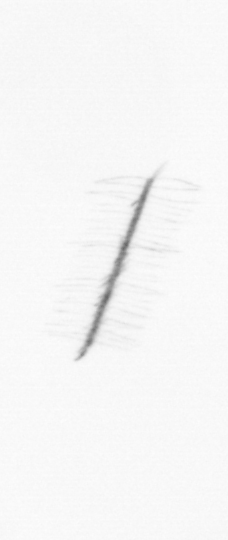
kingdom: Chromista
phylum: Ochrophyta
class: Bacillariophyceae
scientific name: Bacillariophyceae
